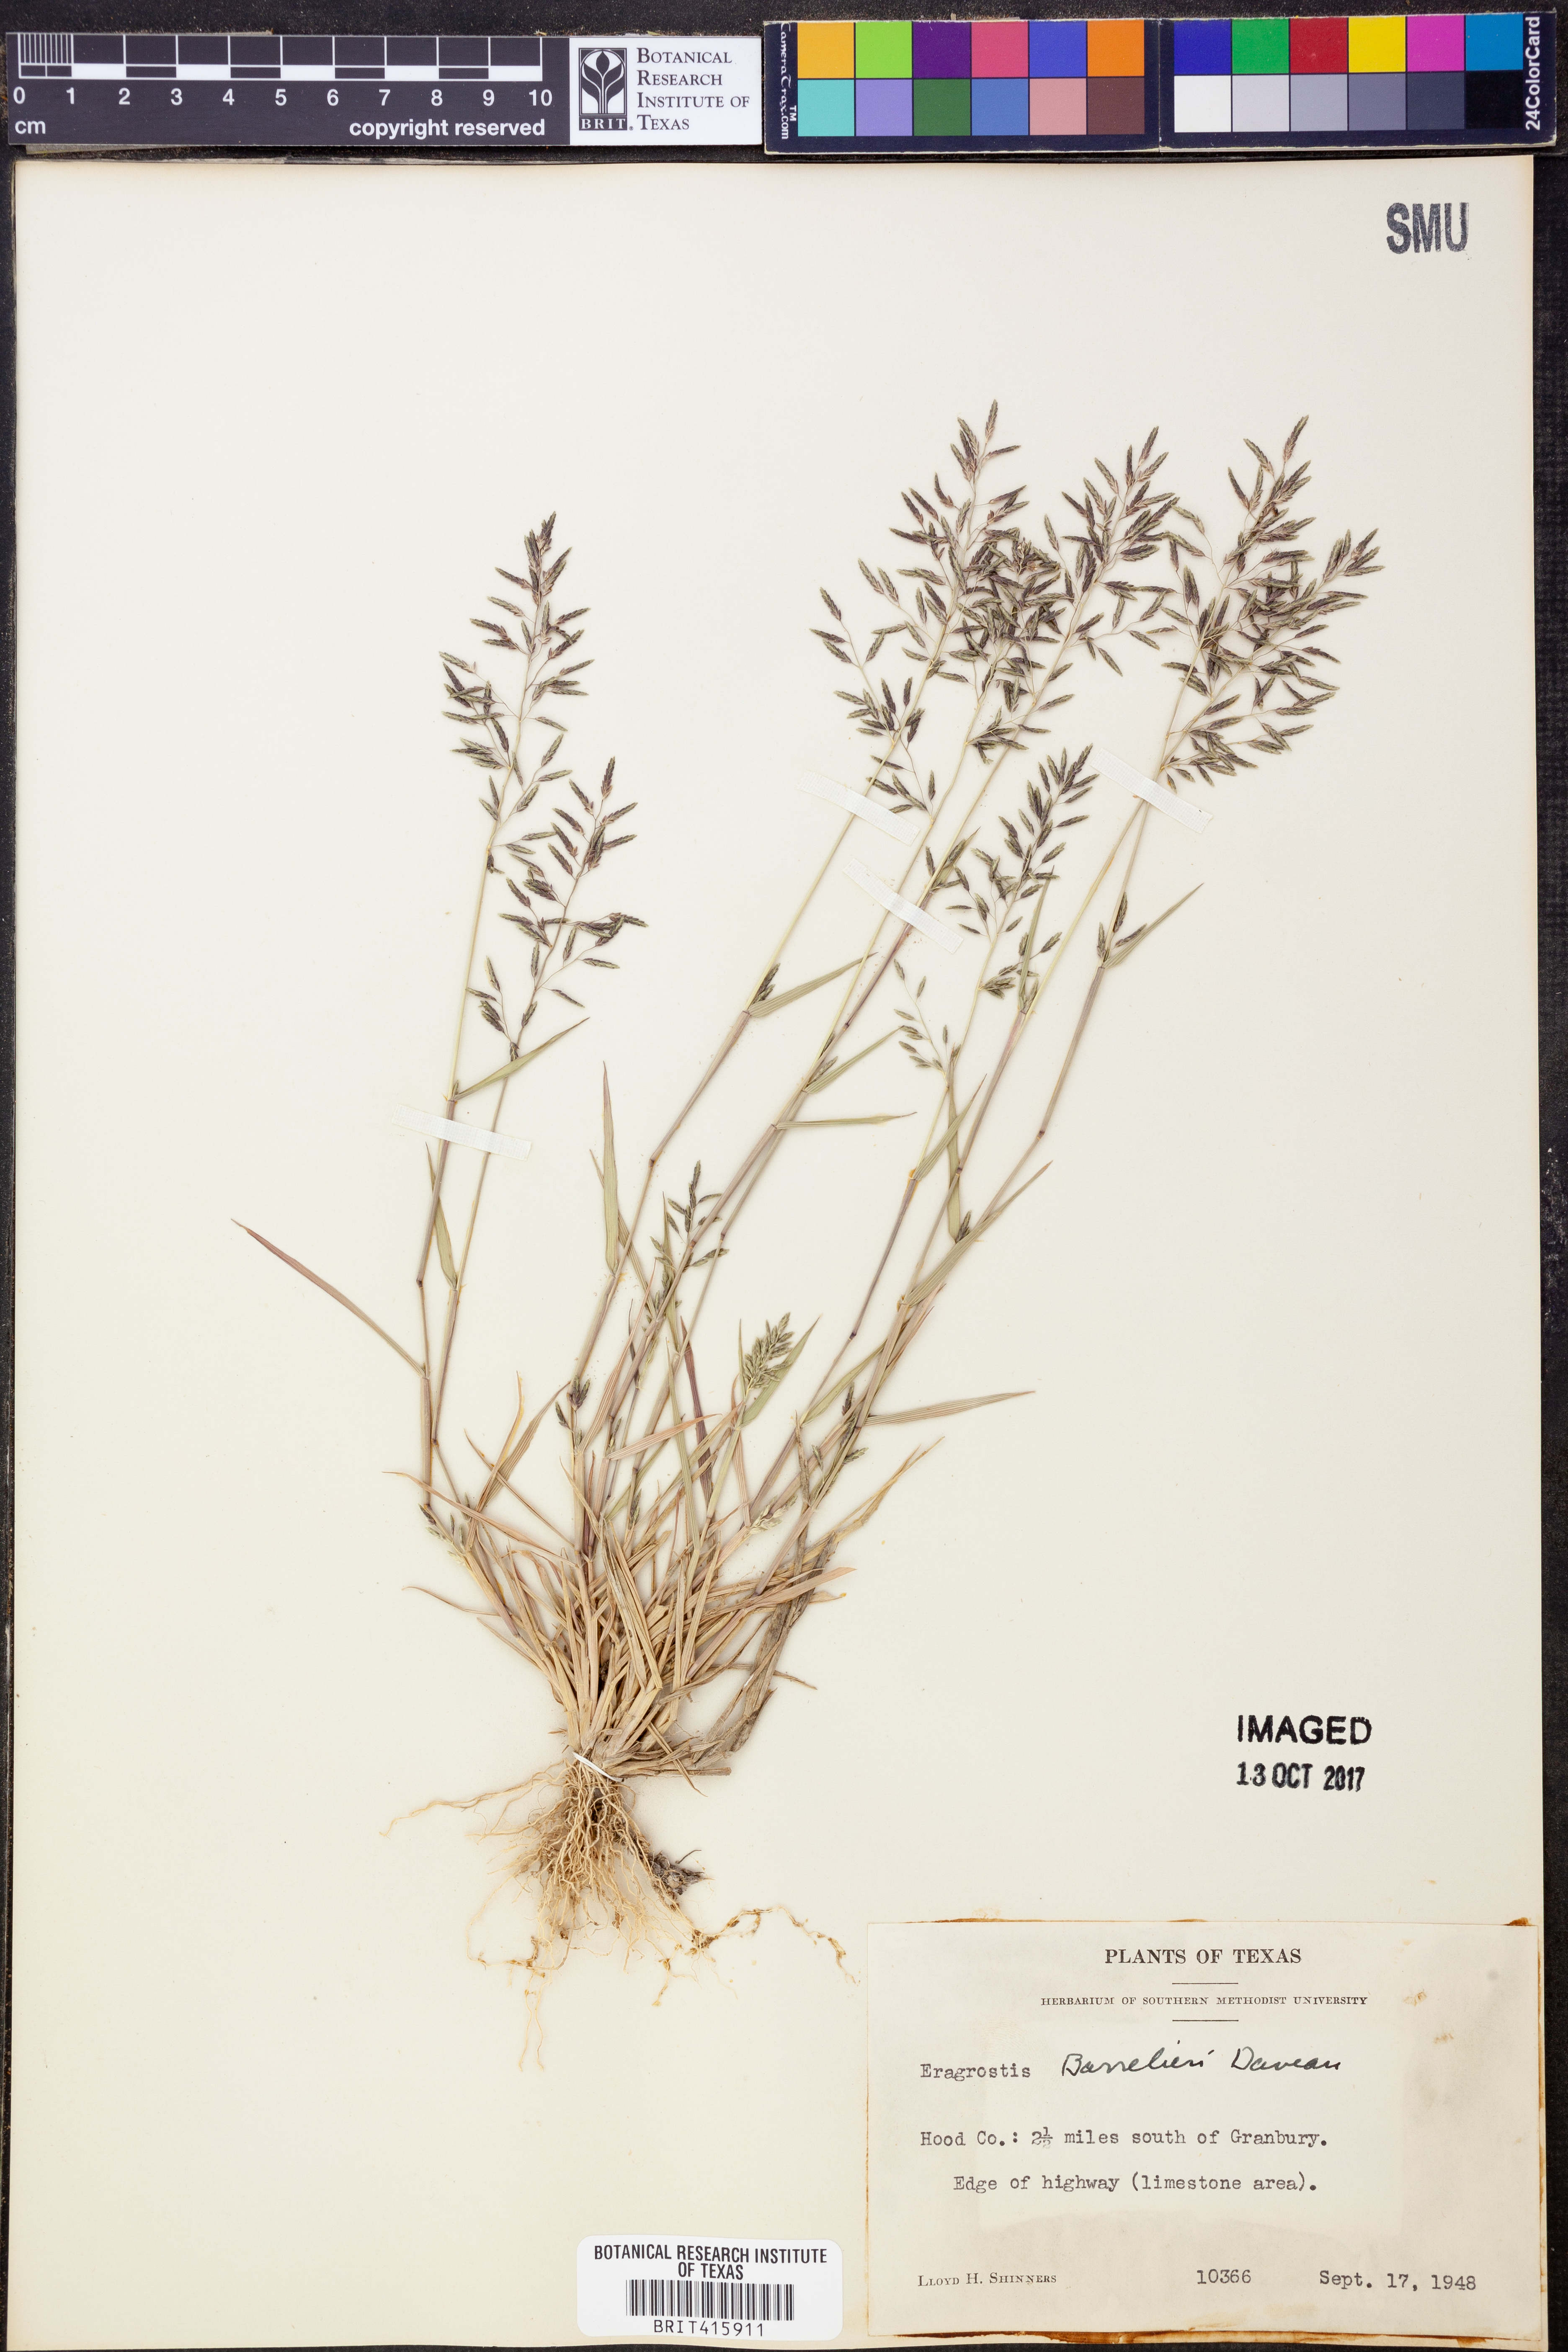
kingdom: Plantae
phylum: Tracheophyta
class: Liliopsida
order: Poales
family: Poaceae
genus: Eragrostis
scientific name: Eragrostis barrelieri
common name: Mediterranean lovegrass
